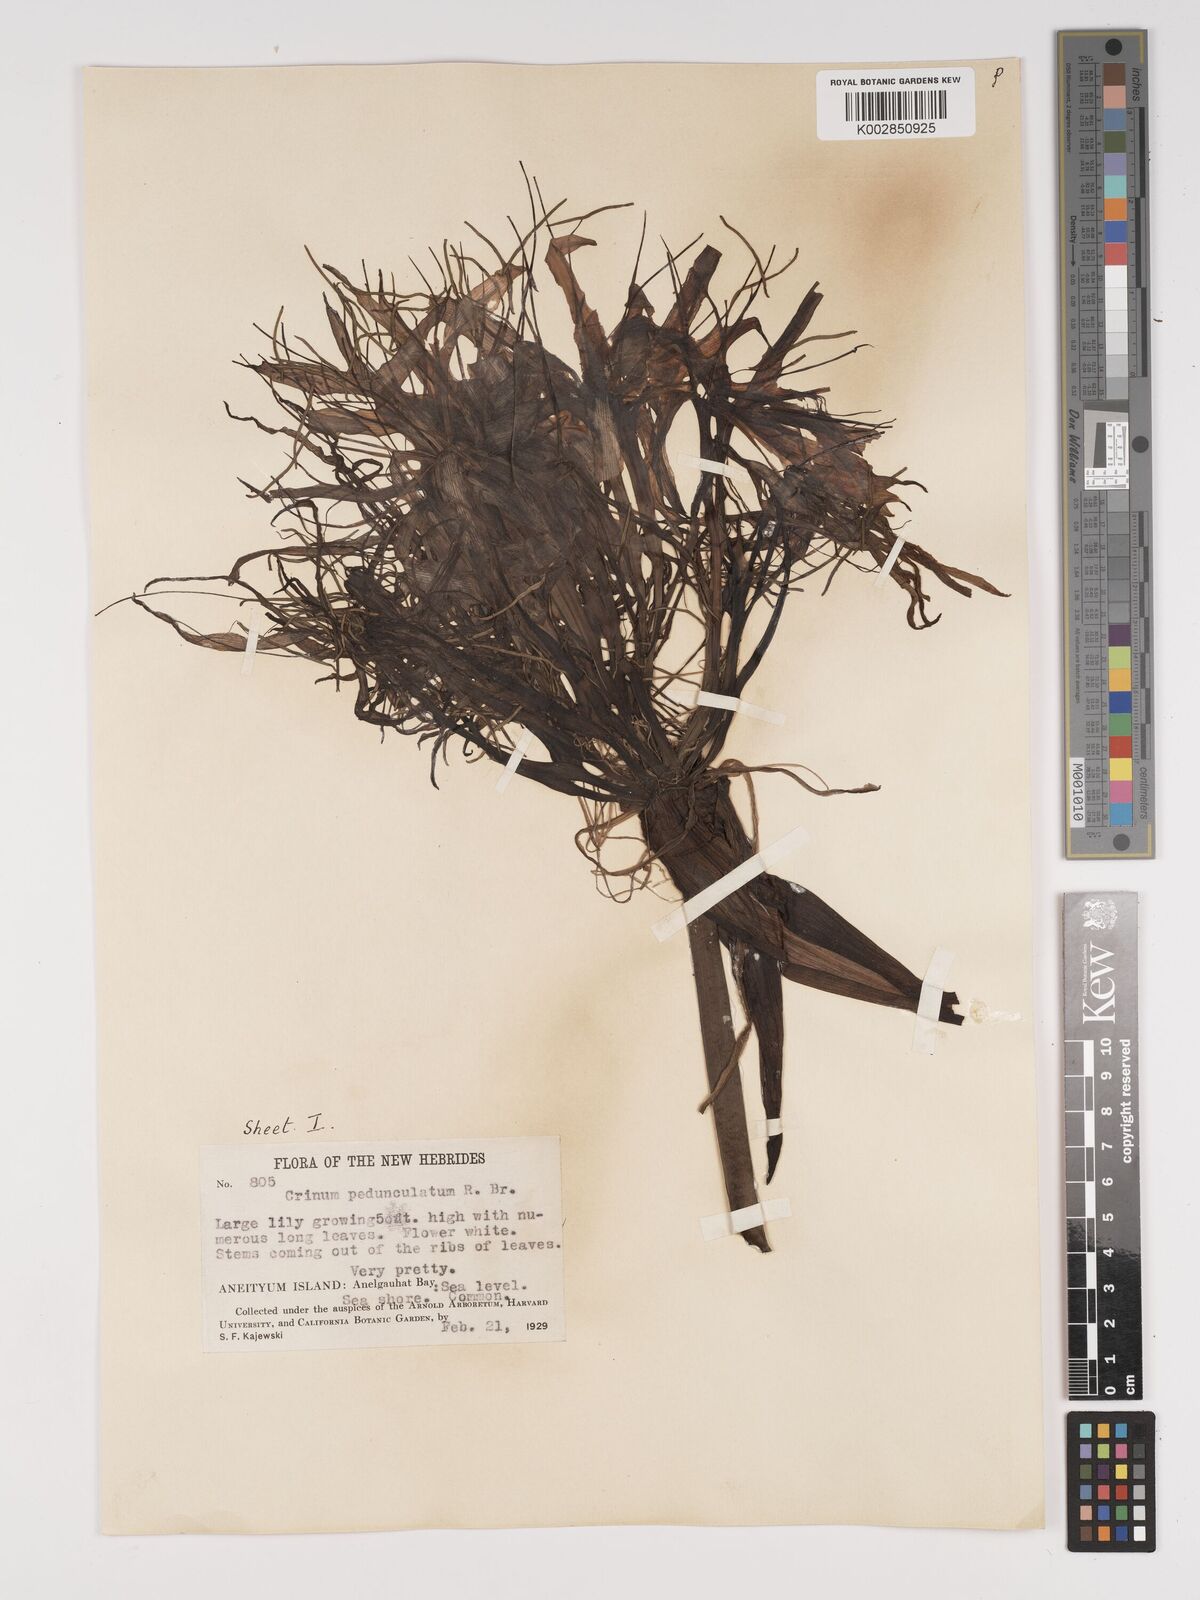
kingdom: Plantae
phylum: Tracheophyta
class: Liliopsida
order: Asparagales
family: Amaryllidaceae
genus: Crinum
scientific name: Crinum asiaticum
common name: Poisonbulb
